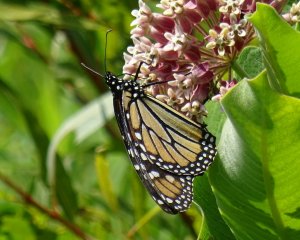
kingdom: Animalia
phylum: Arthropoda
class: Insecta
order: Lepidoptera
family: Nymphalidae
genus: Danaus
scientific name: Danaus plexippus
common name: Monarch
